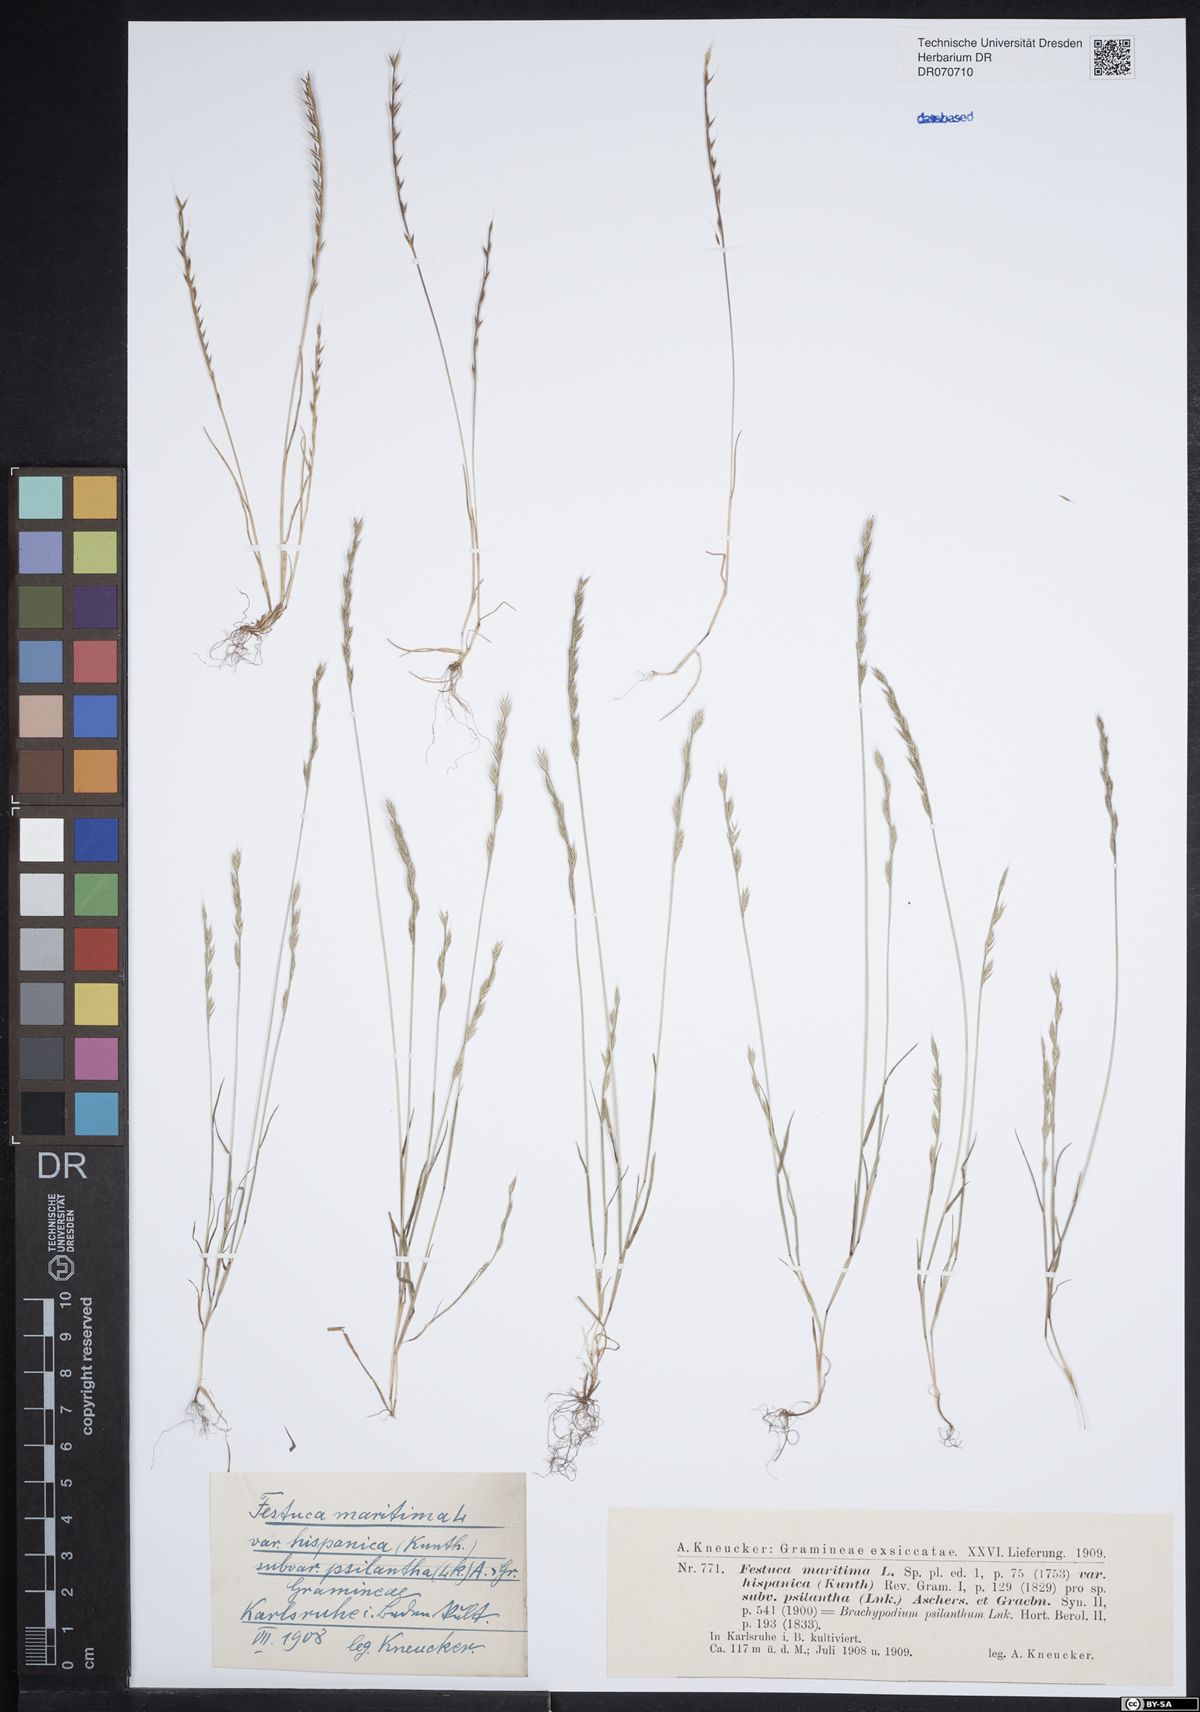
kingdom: Plantae
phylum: Tracheophyta
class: Liliopsida
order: Poales
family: Poaceae
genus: Festuca
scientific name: Festuca maritima
